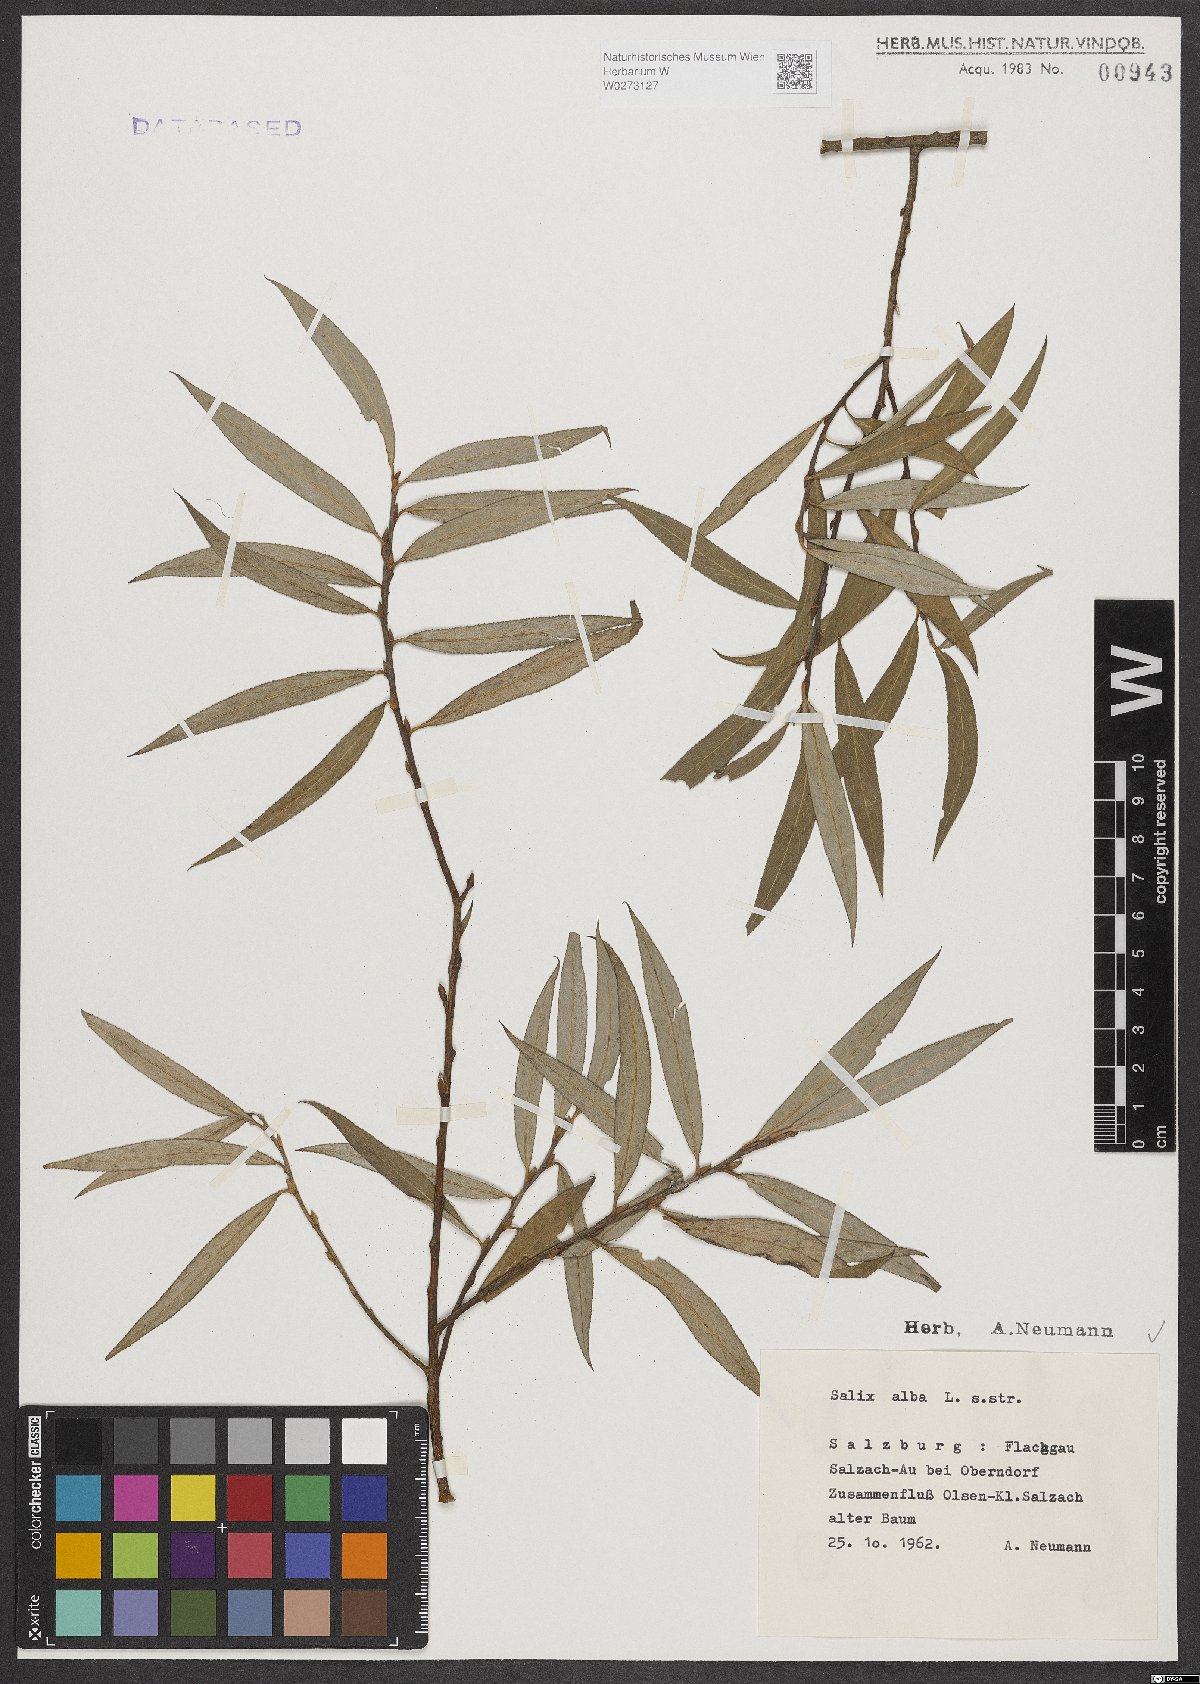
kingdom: Plantae
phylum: Tracheophyta
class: Magnoliopsida
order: Malpighiales
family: Salicaceae
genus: Salix
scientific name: Salix alba
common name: White willow
